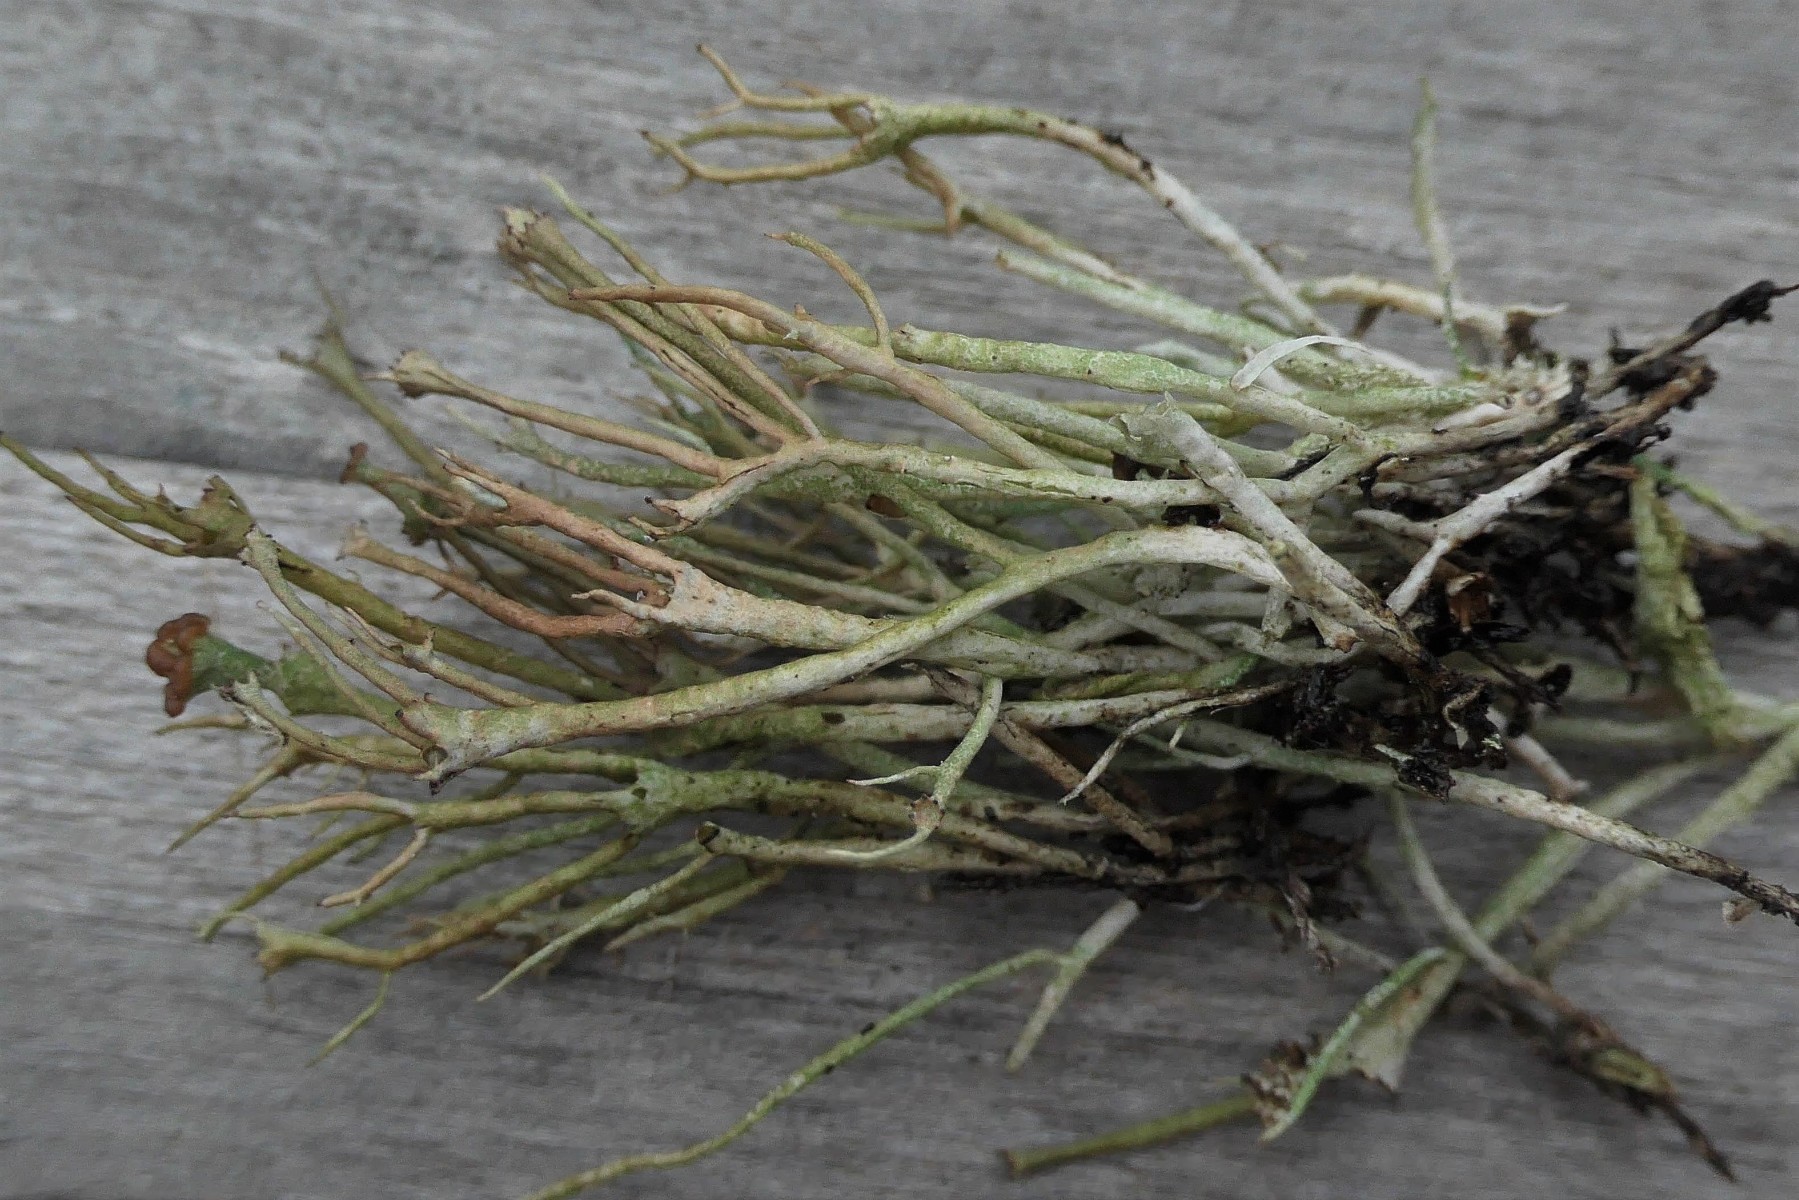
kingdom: Fungi
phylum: Ascomycota
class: Lecanoromycetes
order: Lecanorales
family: Cladoniaceae
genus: Cladonia
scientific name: Cladonia gracilis
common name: slank bægerlav
